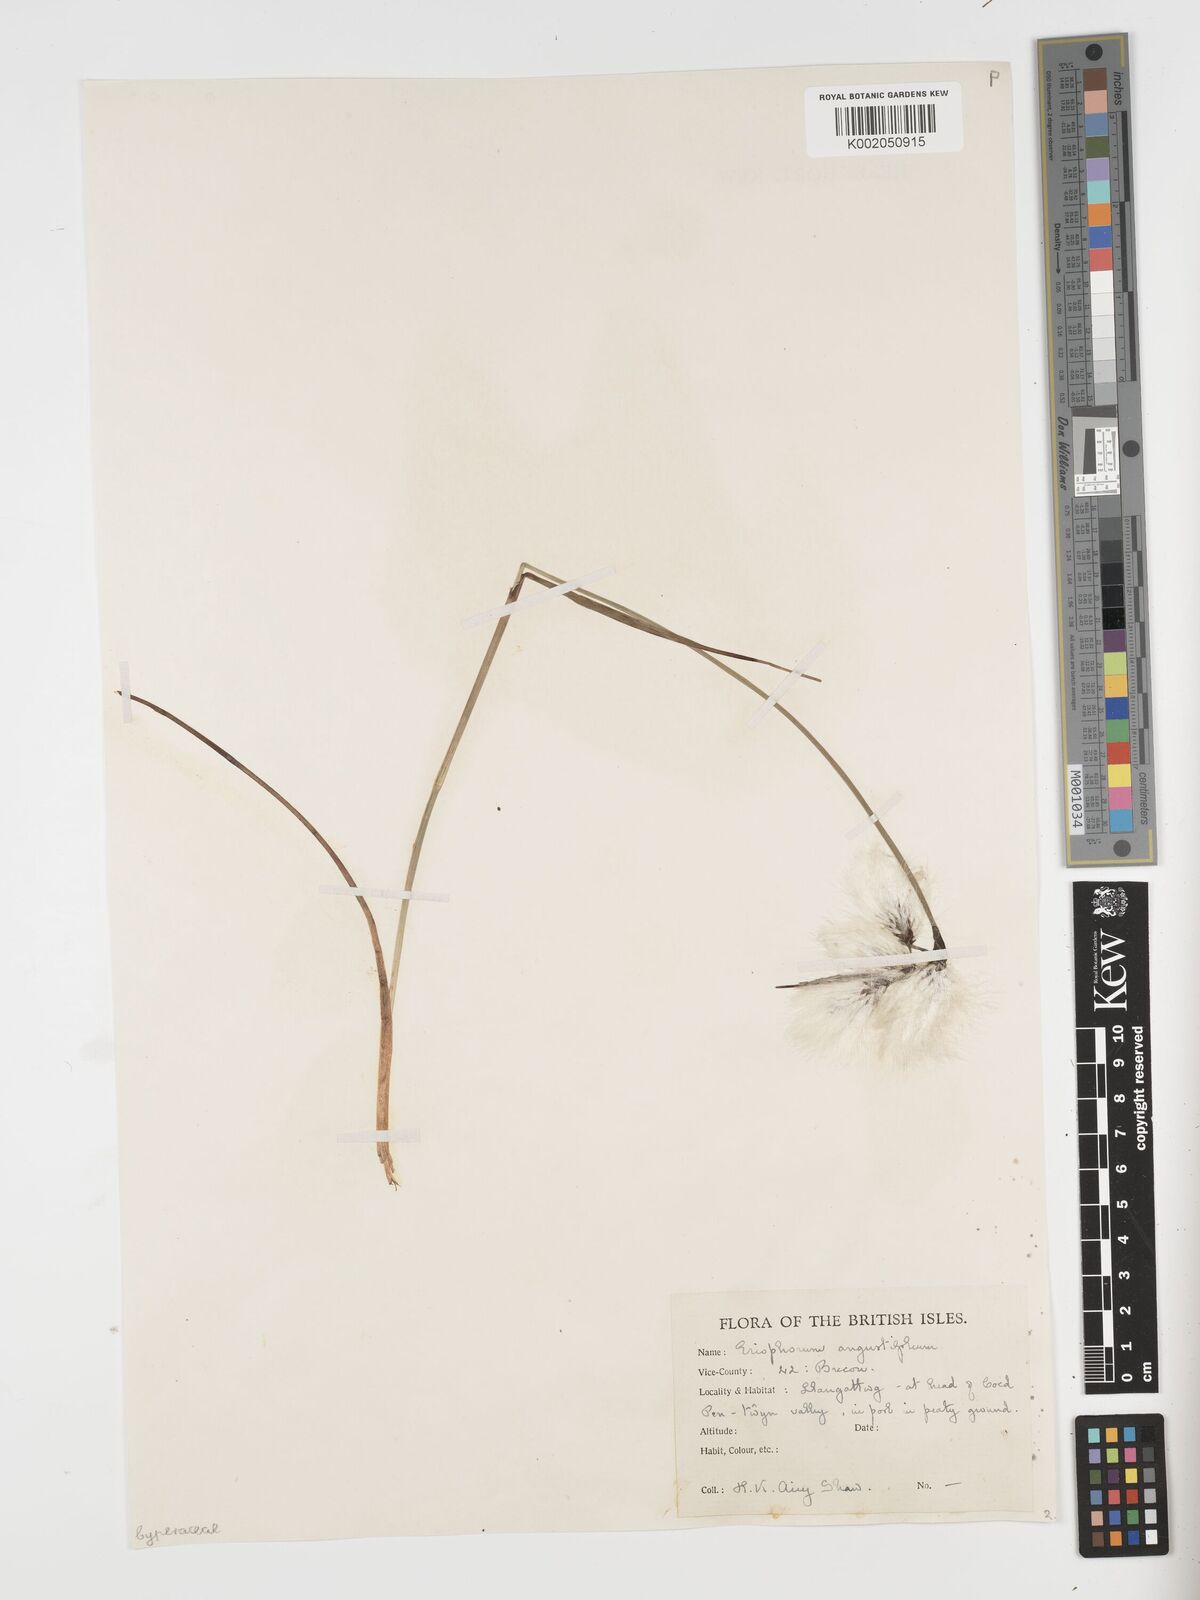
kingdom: Plantae
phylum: Tracheophyta
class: Liliopsida
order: Poales
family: Cyperaceae
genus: Eriophorum
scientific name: Eriophorum angustifolium
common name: Common cottongrass
